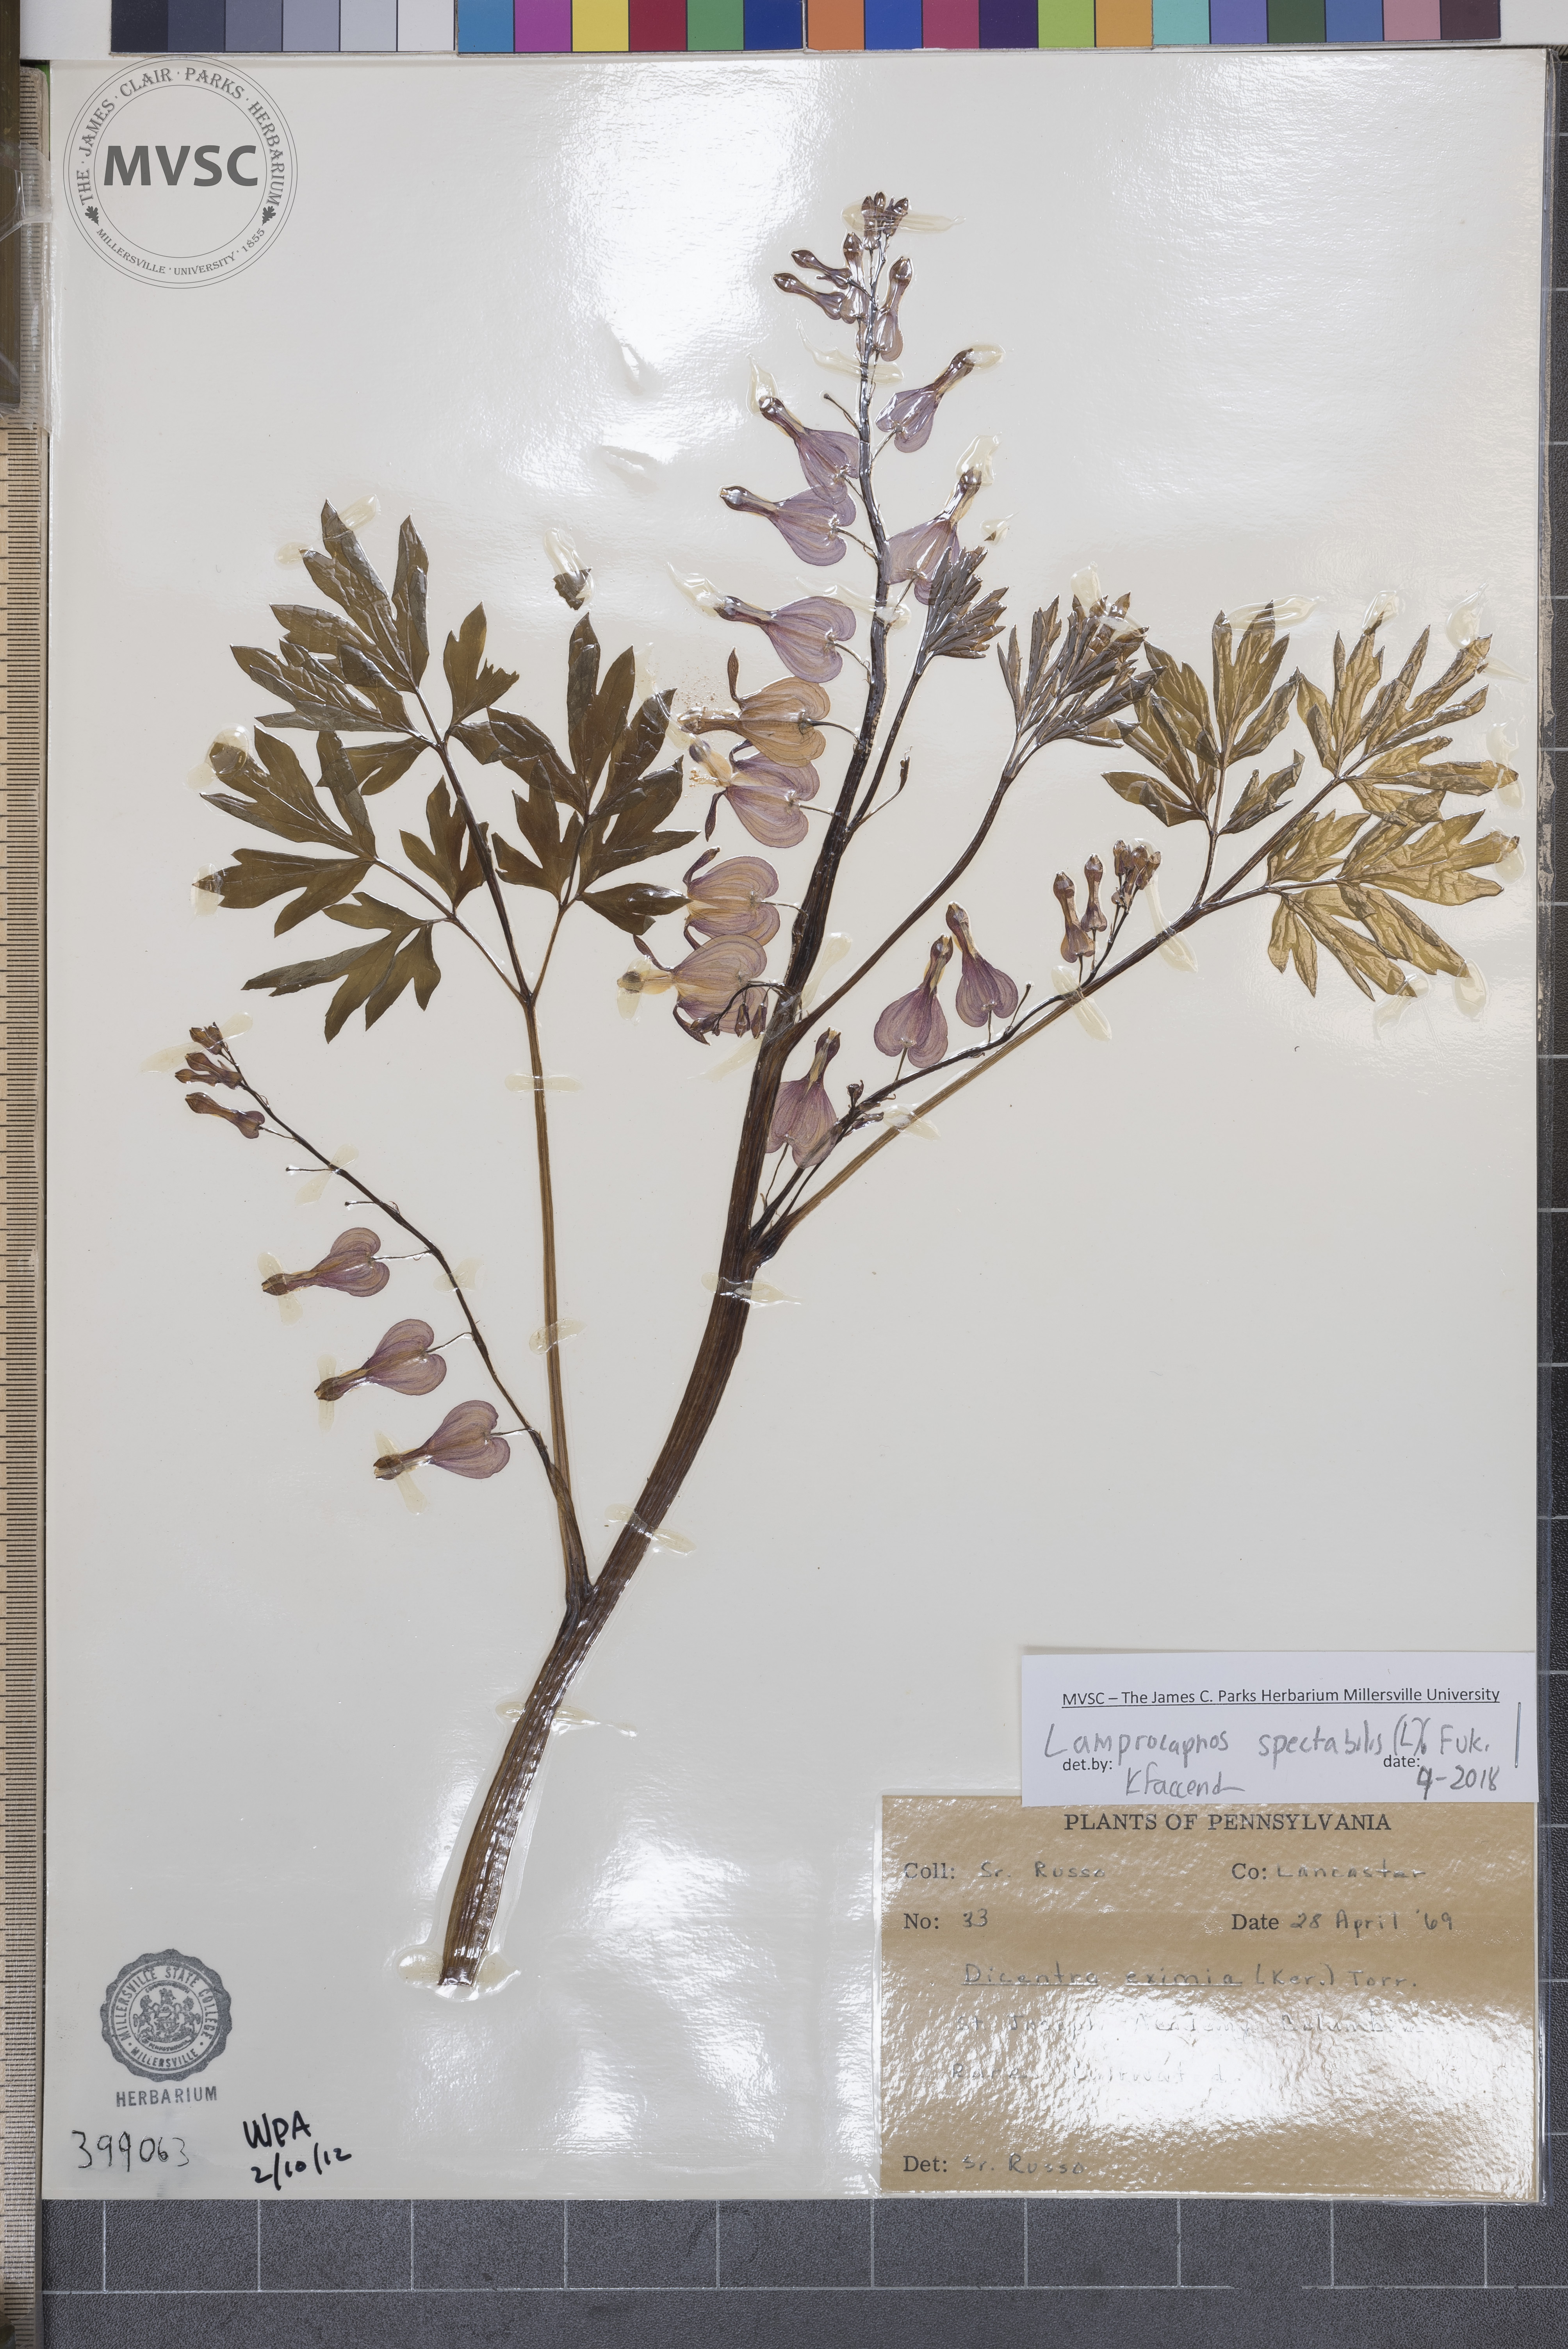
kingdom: Plantae
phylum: Tracheophyta
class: Magnoliopsida
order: Ranunculales
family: Papaveraceae
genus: Lamprocapnos
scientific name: Lamprocapnos spectabilis
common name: bleeding-heart
